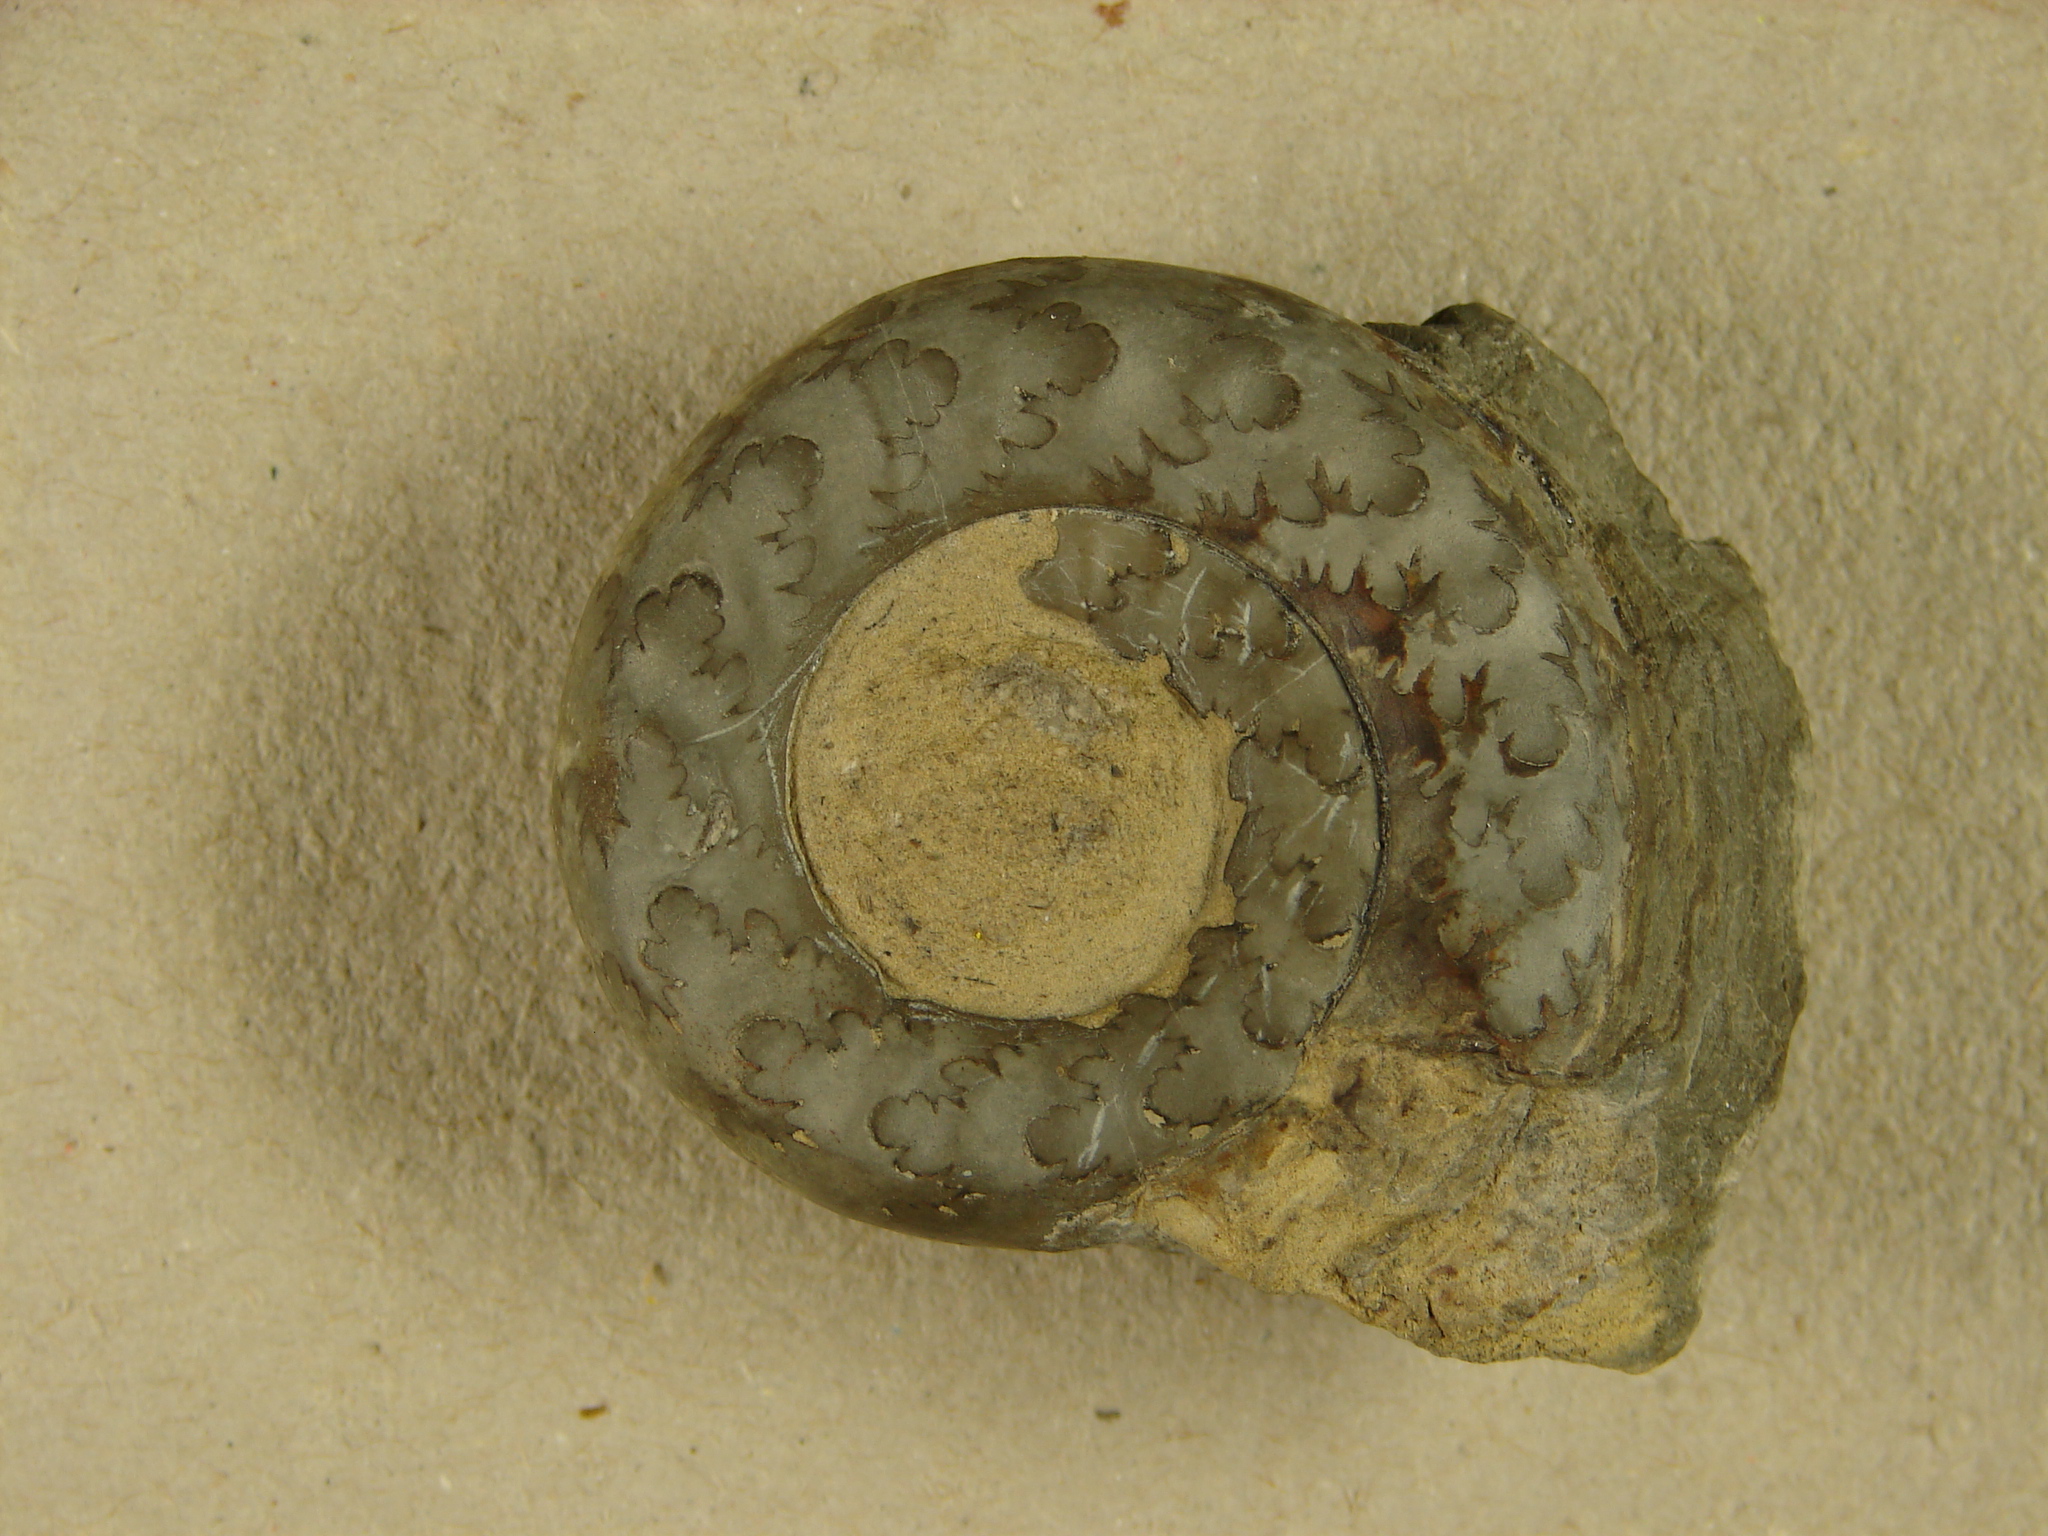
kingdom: Animalia
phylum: Mollusca
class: Cephalopoda
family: Psiloceratidae
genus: Psiloceras
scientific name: Psiloceras plicatulum
